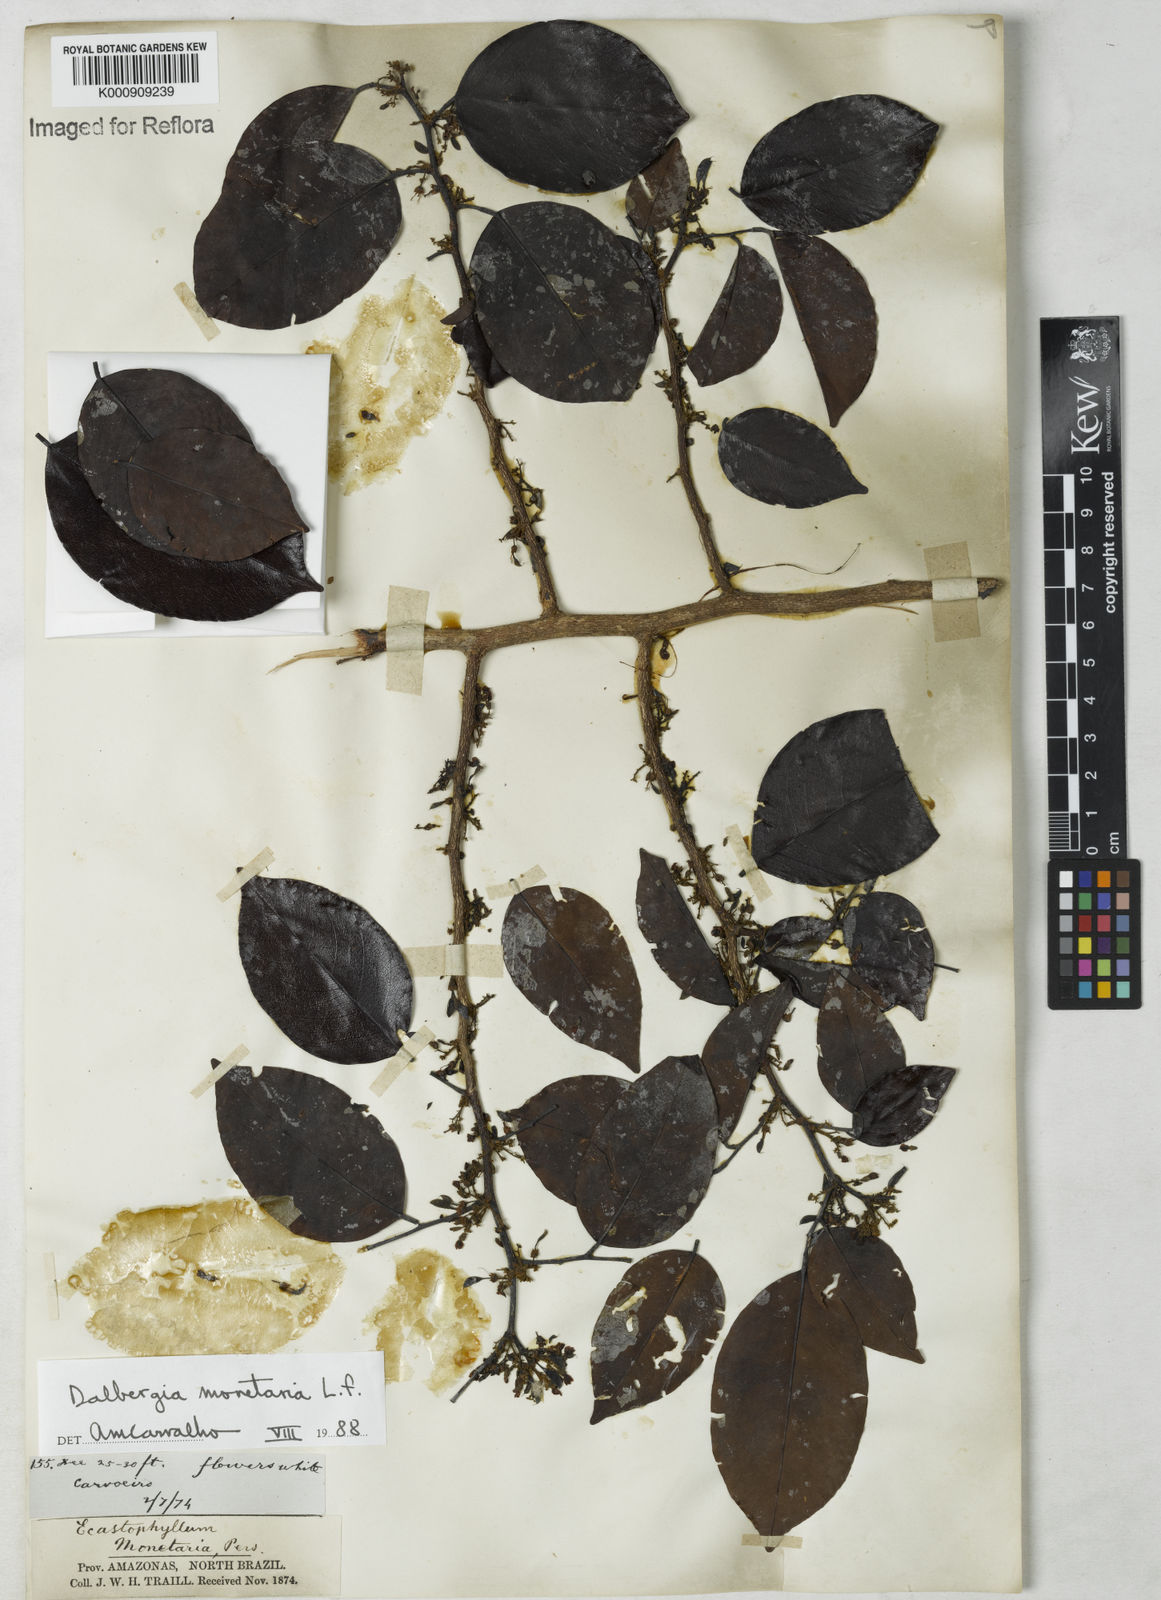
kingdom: Plantae
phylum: Tracheophyta
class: Magnoliopsida
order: Fabales
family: Fabaceae
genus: Dalbergia
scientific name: Dalbergia ovalis
